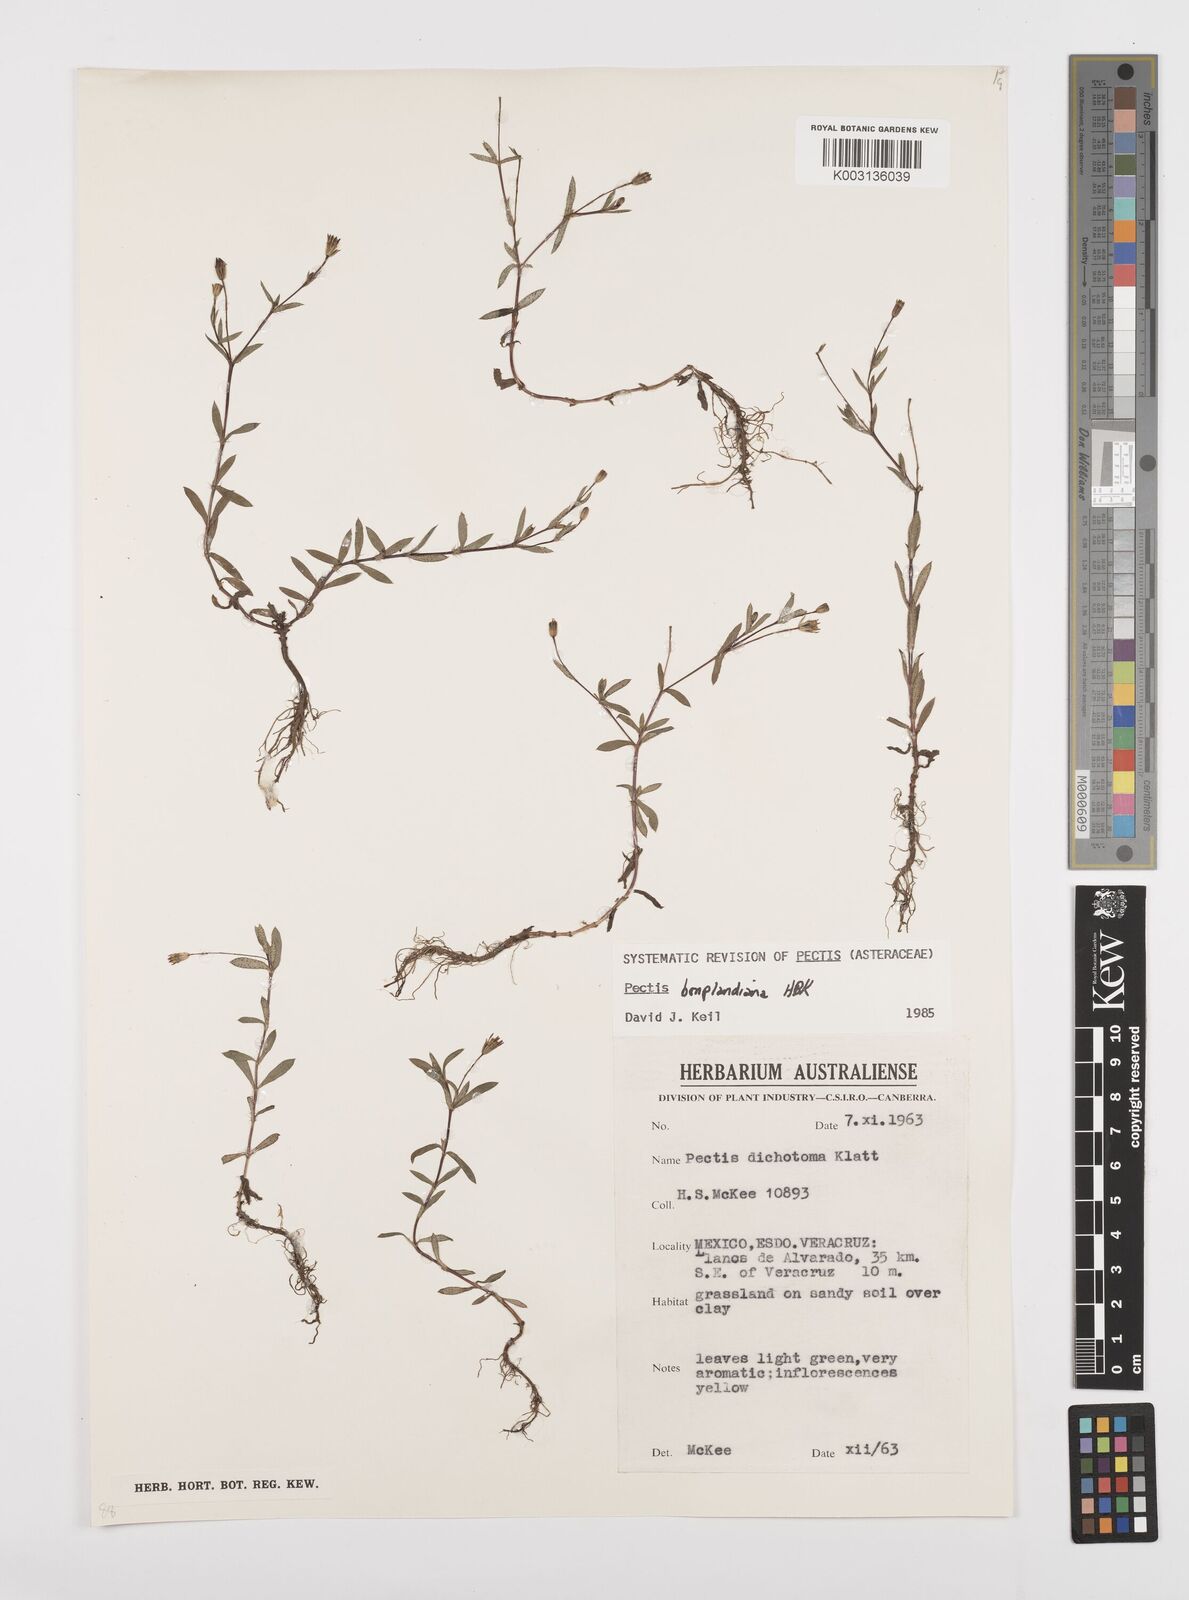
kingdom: Plantae
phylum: Tracheophyta
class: Magnoliopsida
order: Asterales
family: Asteraceae
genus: Pectis
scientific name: Pectis uniaristata
